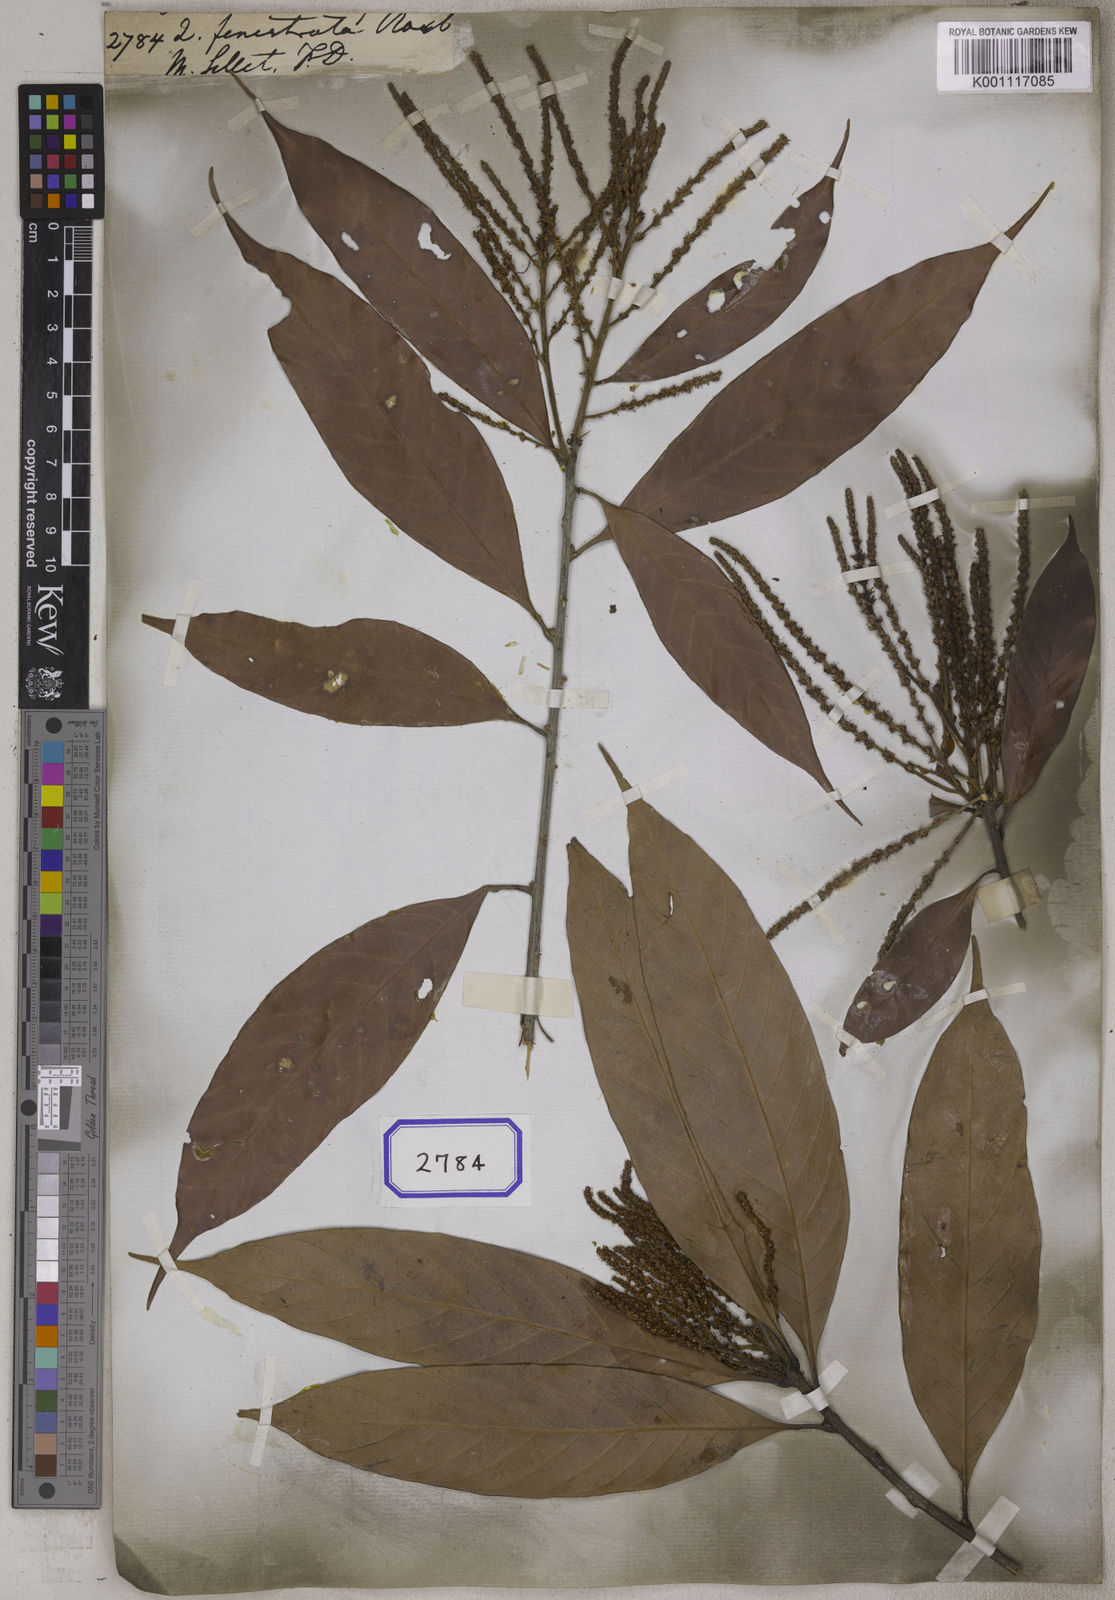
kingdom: Plantae
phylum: Tracheophyta
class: Magnoliopsida
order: Fagales
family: Fagaceae
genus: Quercus
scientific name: Quercus
